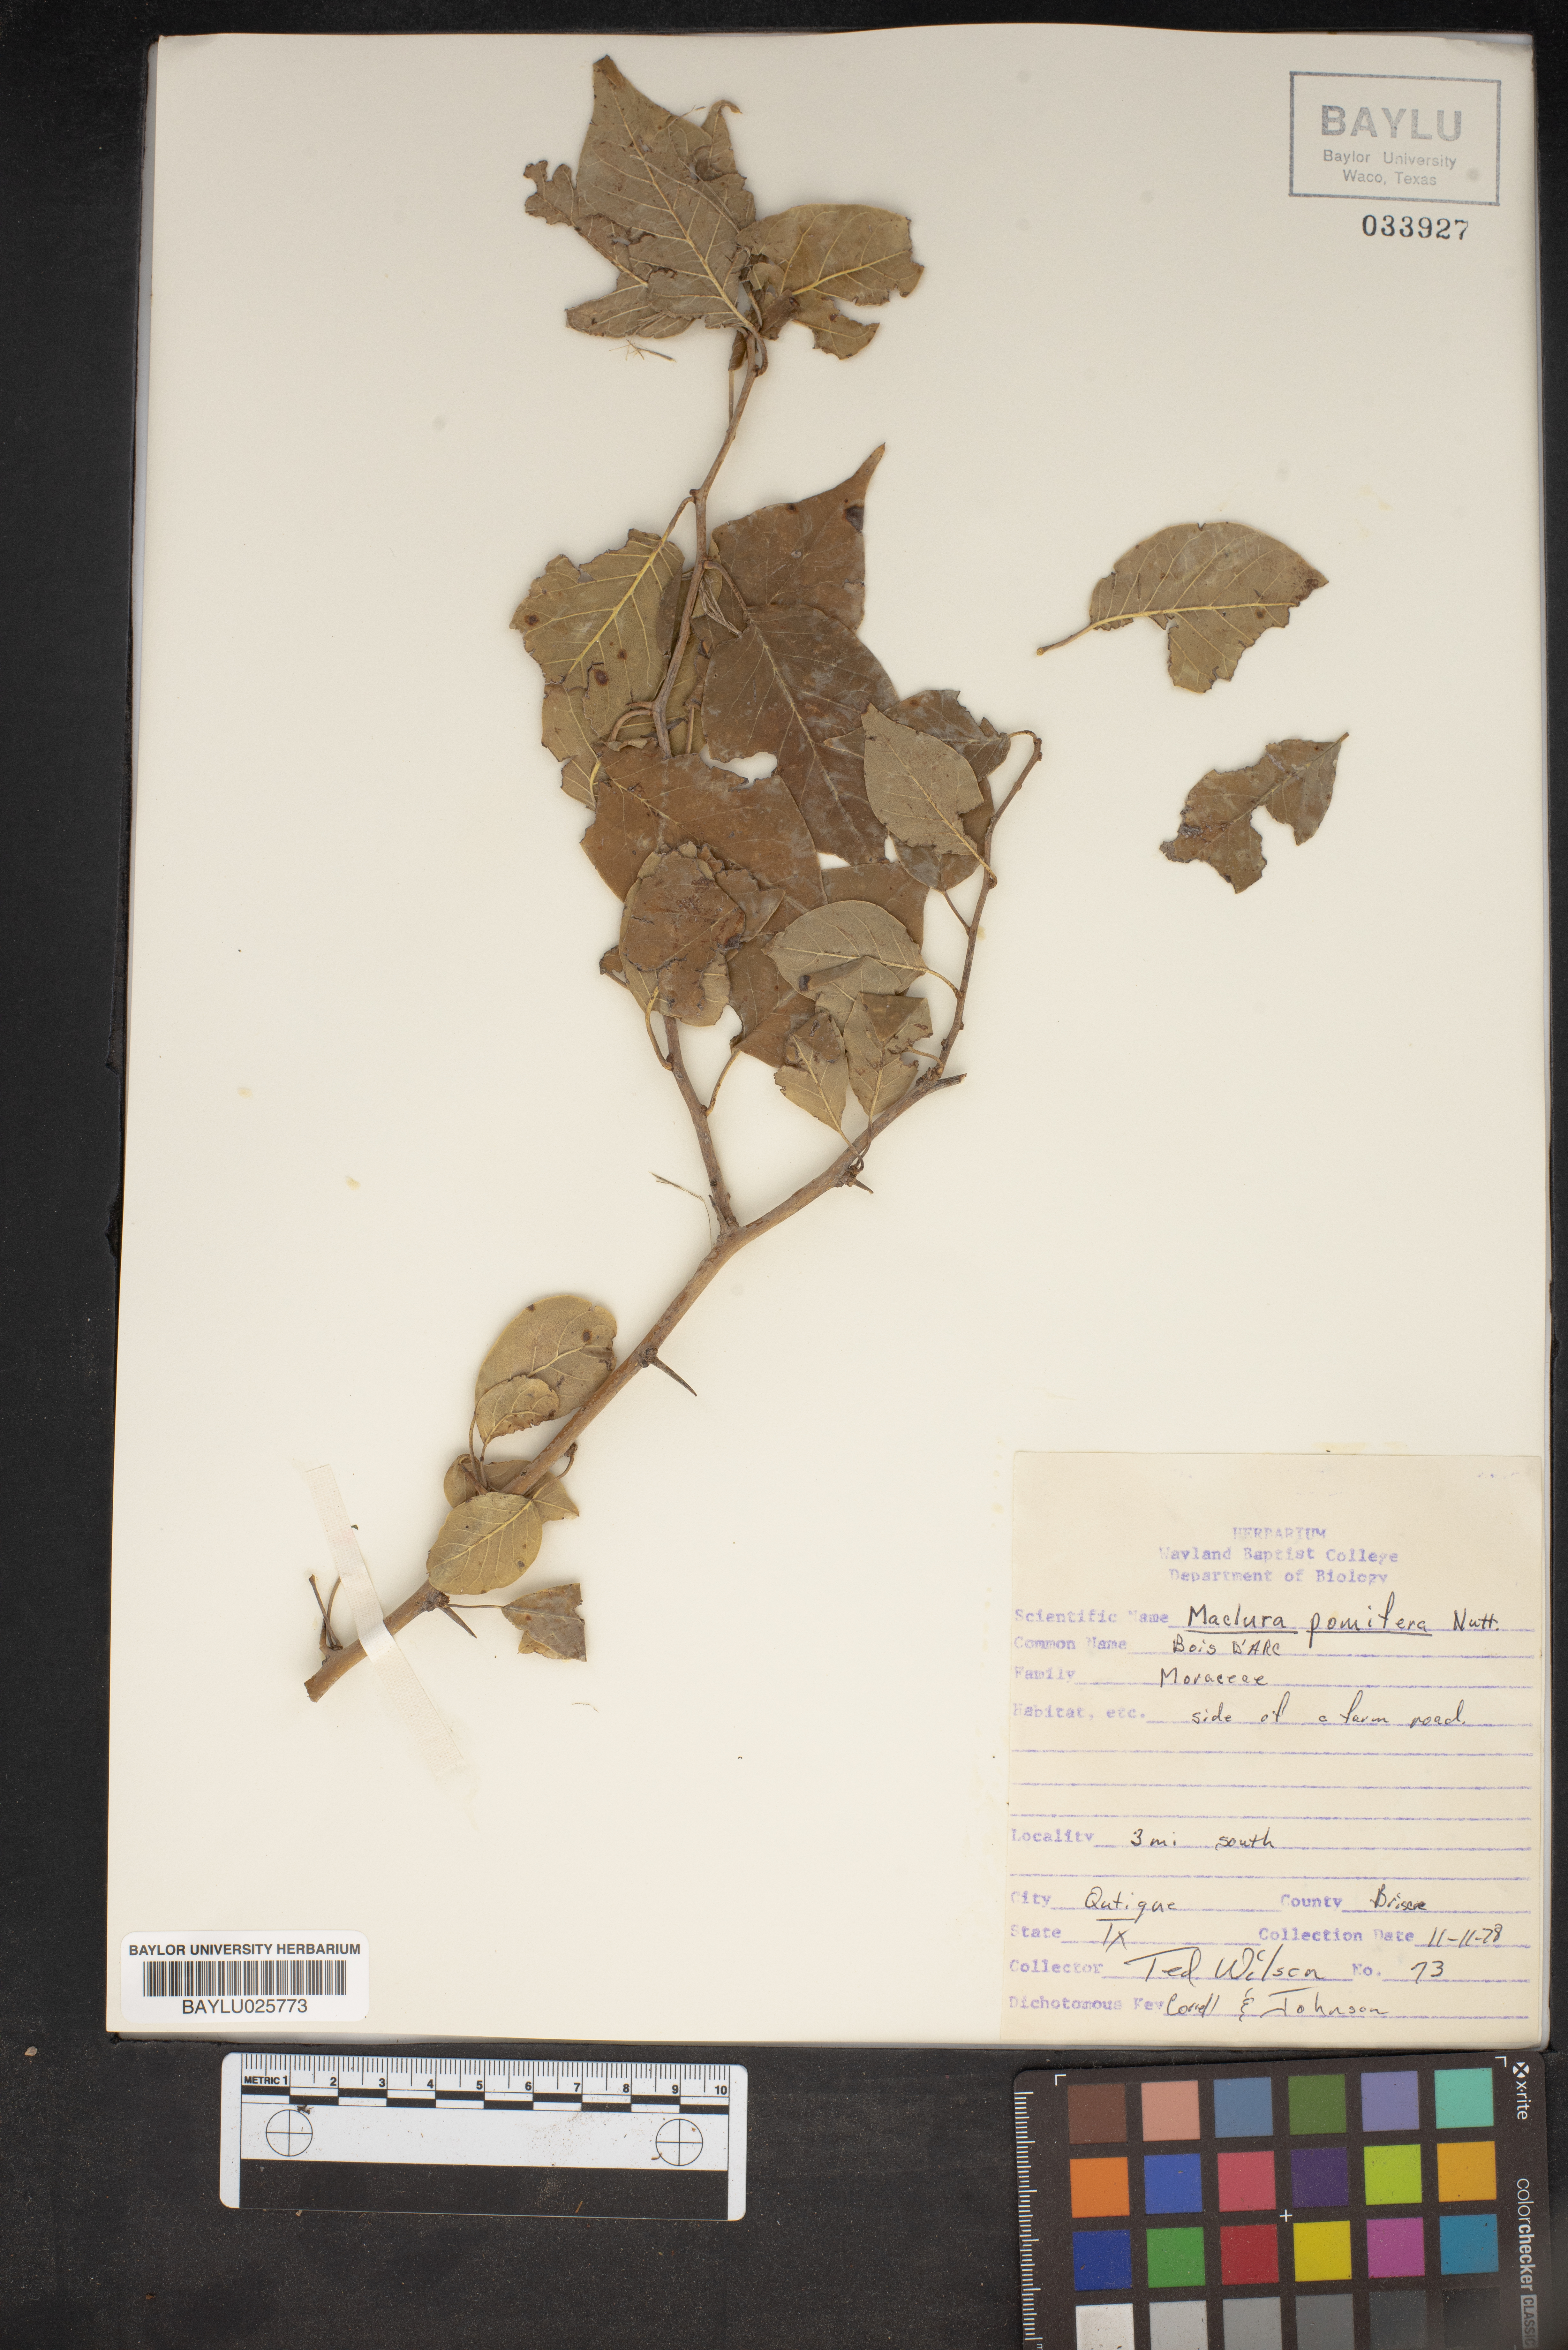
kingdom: Plantae
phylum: Tracheophyta
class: Magnoliopsida
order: Rosales
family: Moraceae
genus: Maclura
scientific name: Maclura pomifera
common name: Osage-orange
